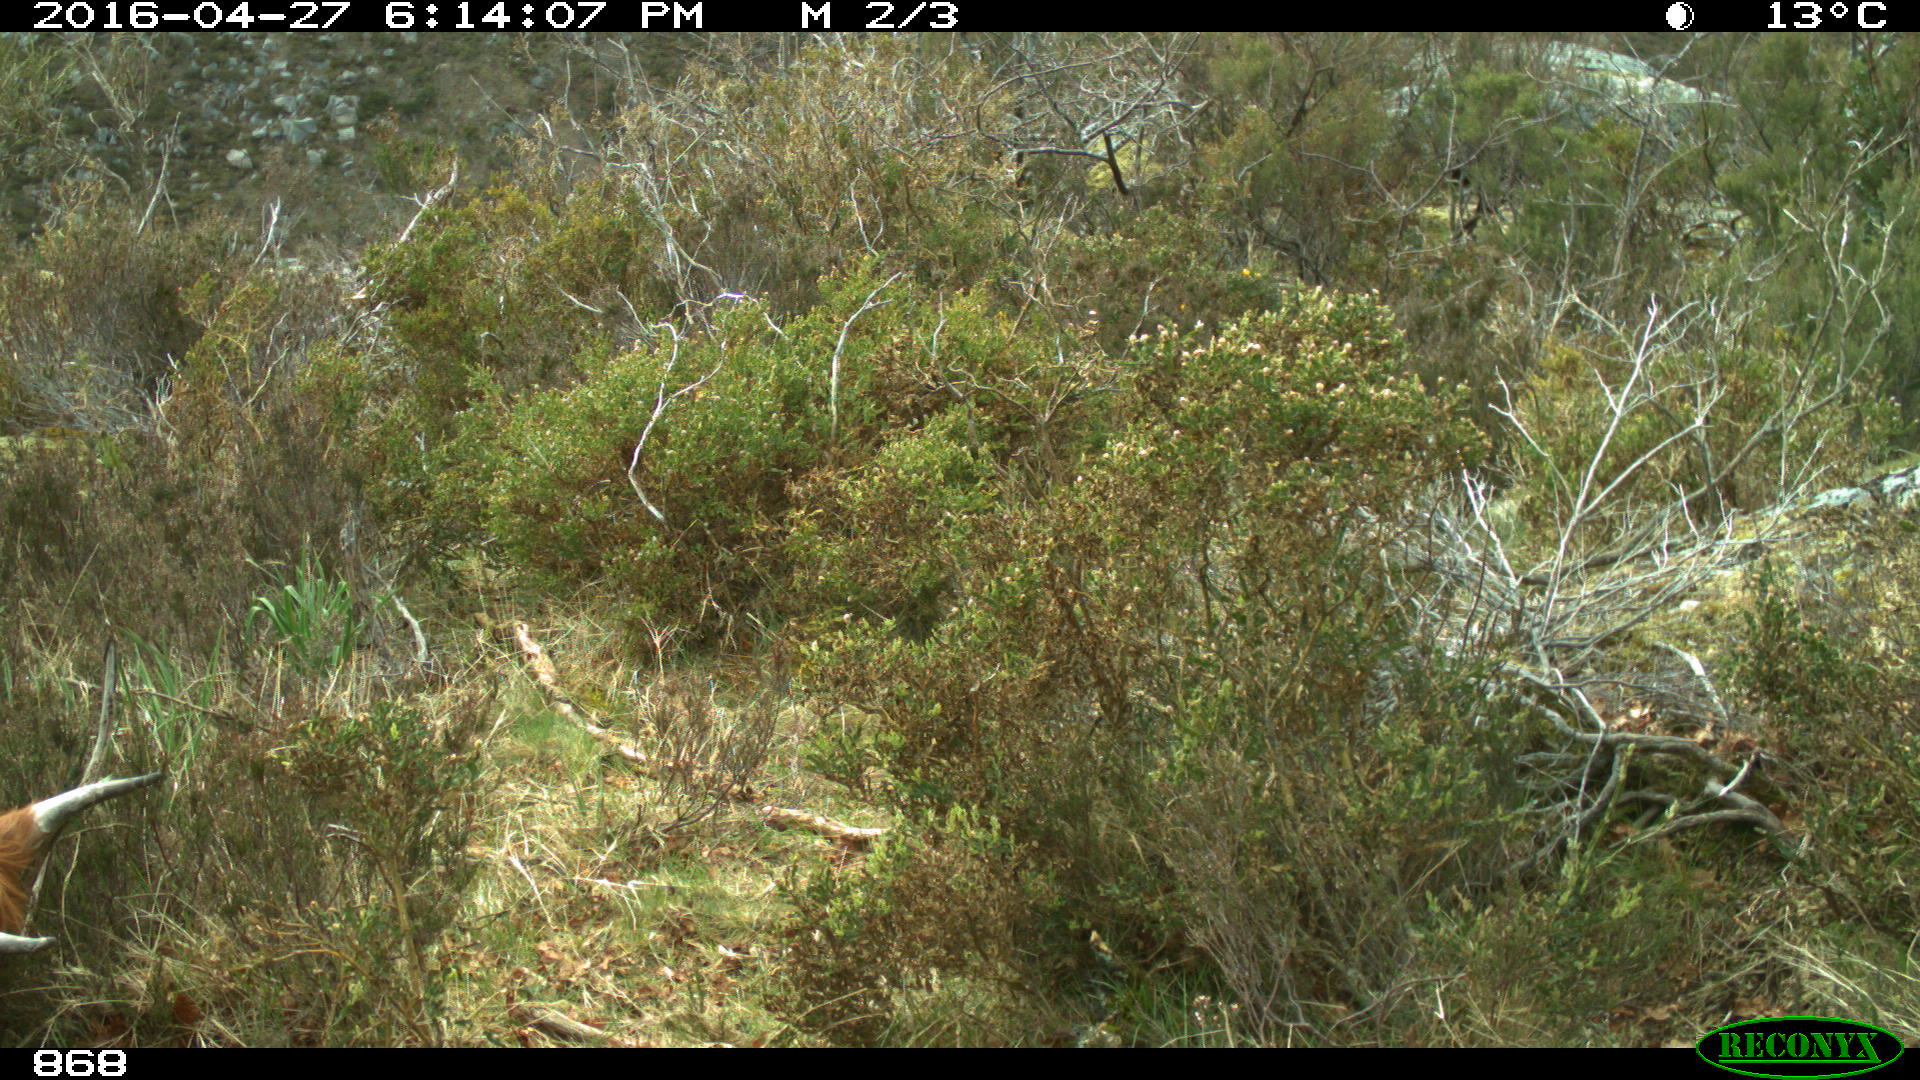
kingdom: Animalia
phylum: Chordata
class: Mammalia
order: Artiodactyla
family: Bovidae
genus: Bos
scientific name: Bos taurus
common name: Domesticated cattle
